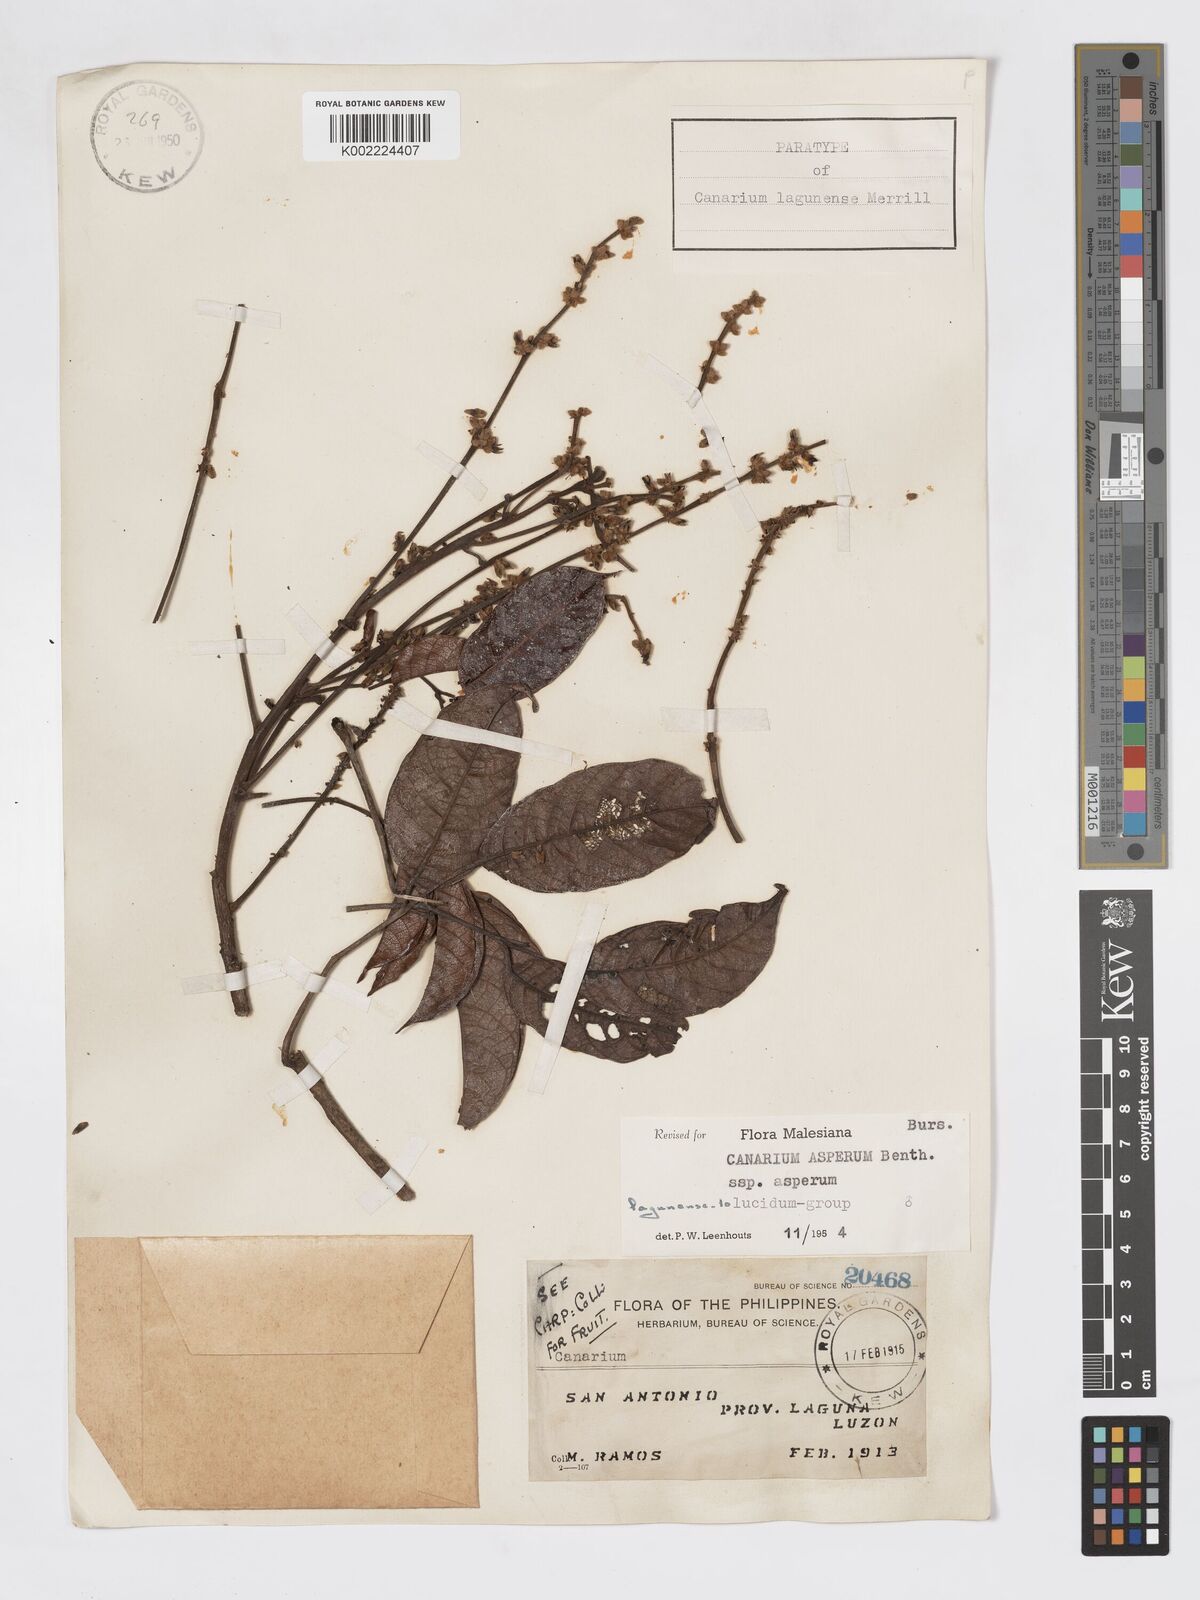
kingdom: Plantae
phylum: Tracheophyta
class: Magnoliopsida
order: Sapindales
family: Burseraceae
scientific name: Burseraceae
